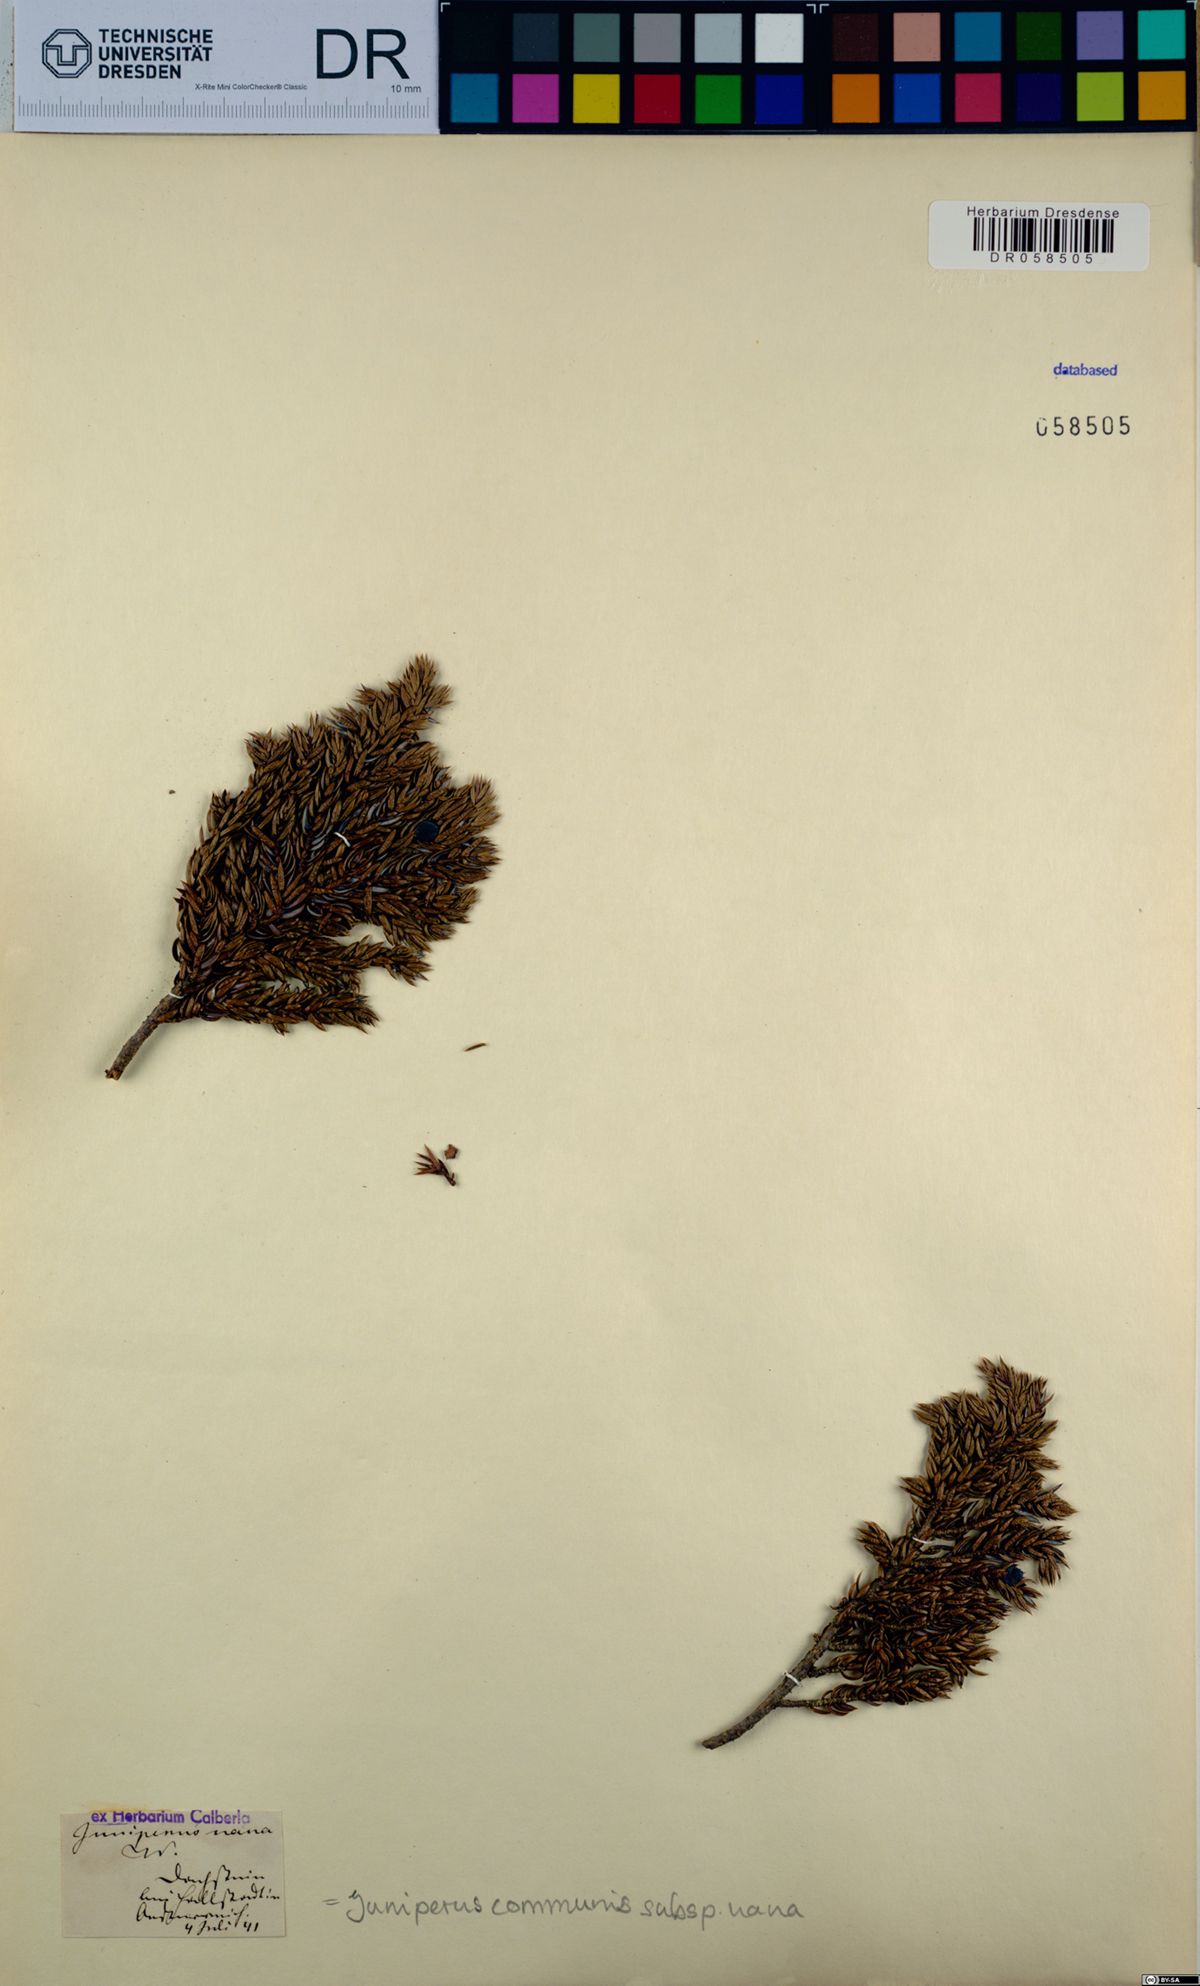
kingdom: Plantae
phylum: Tracheophyta
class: Pinopsida
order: Pinales
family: Cupressaceae
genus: Juniperus
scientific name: Juniperus communis
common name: Common juniper
